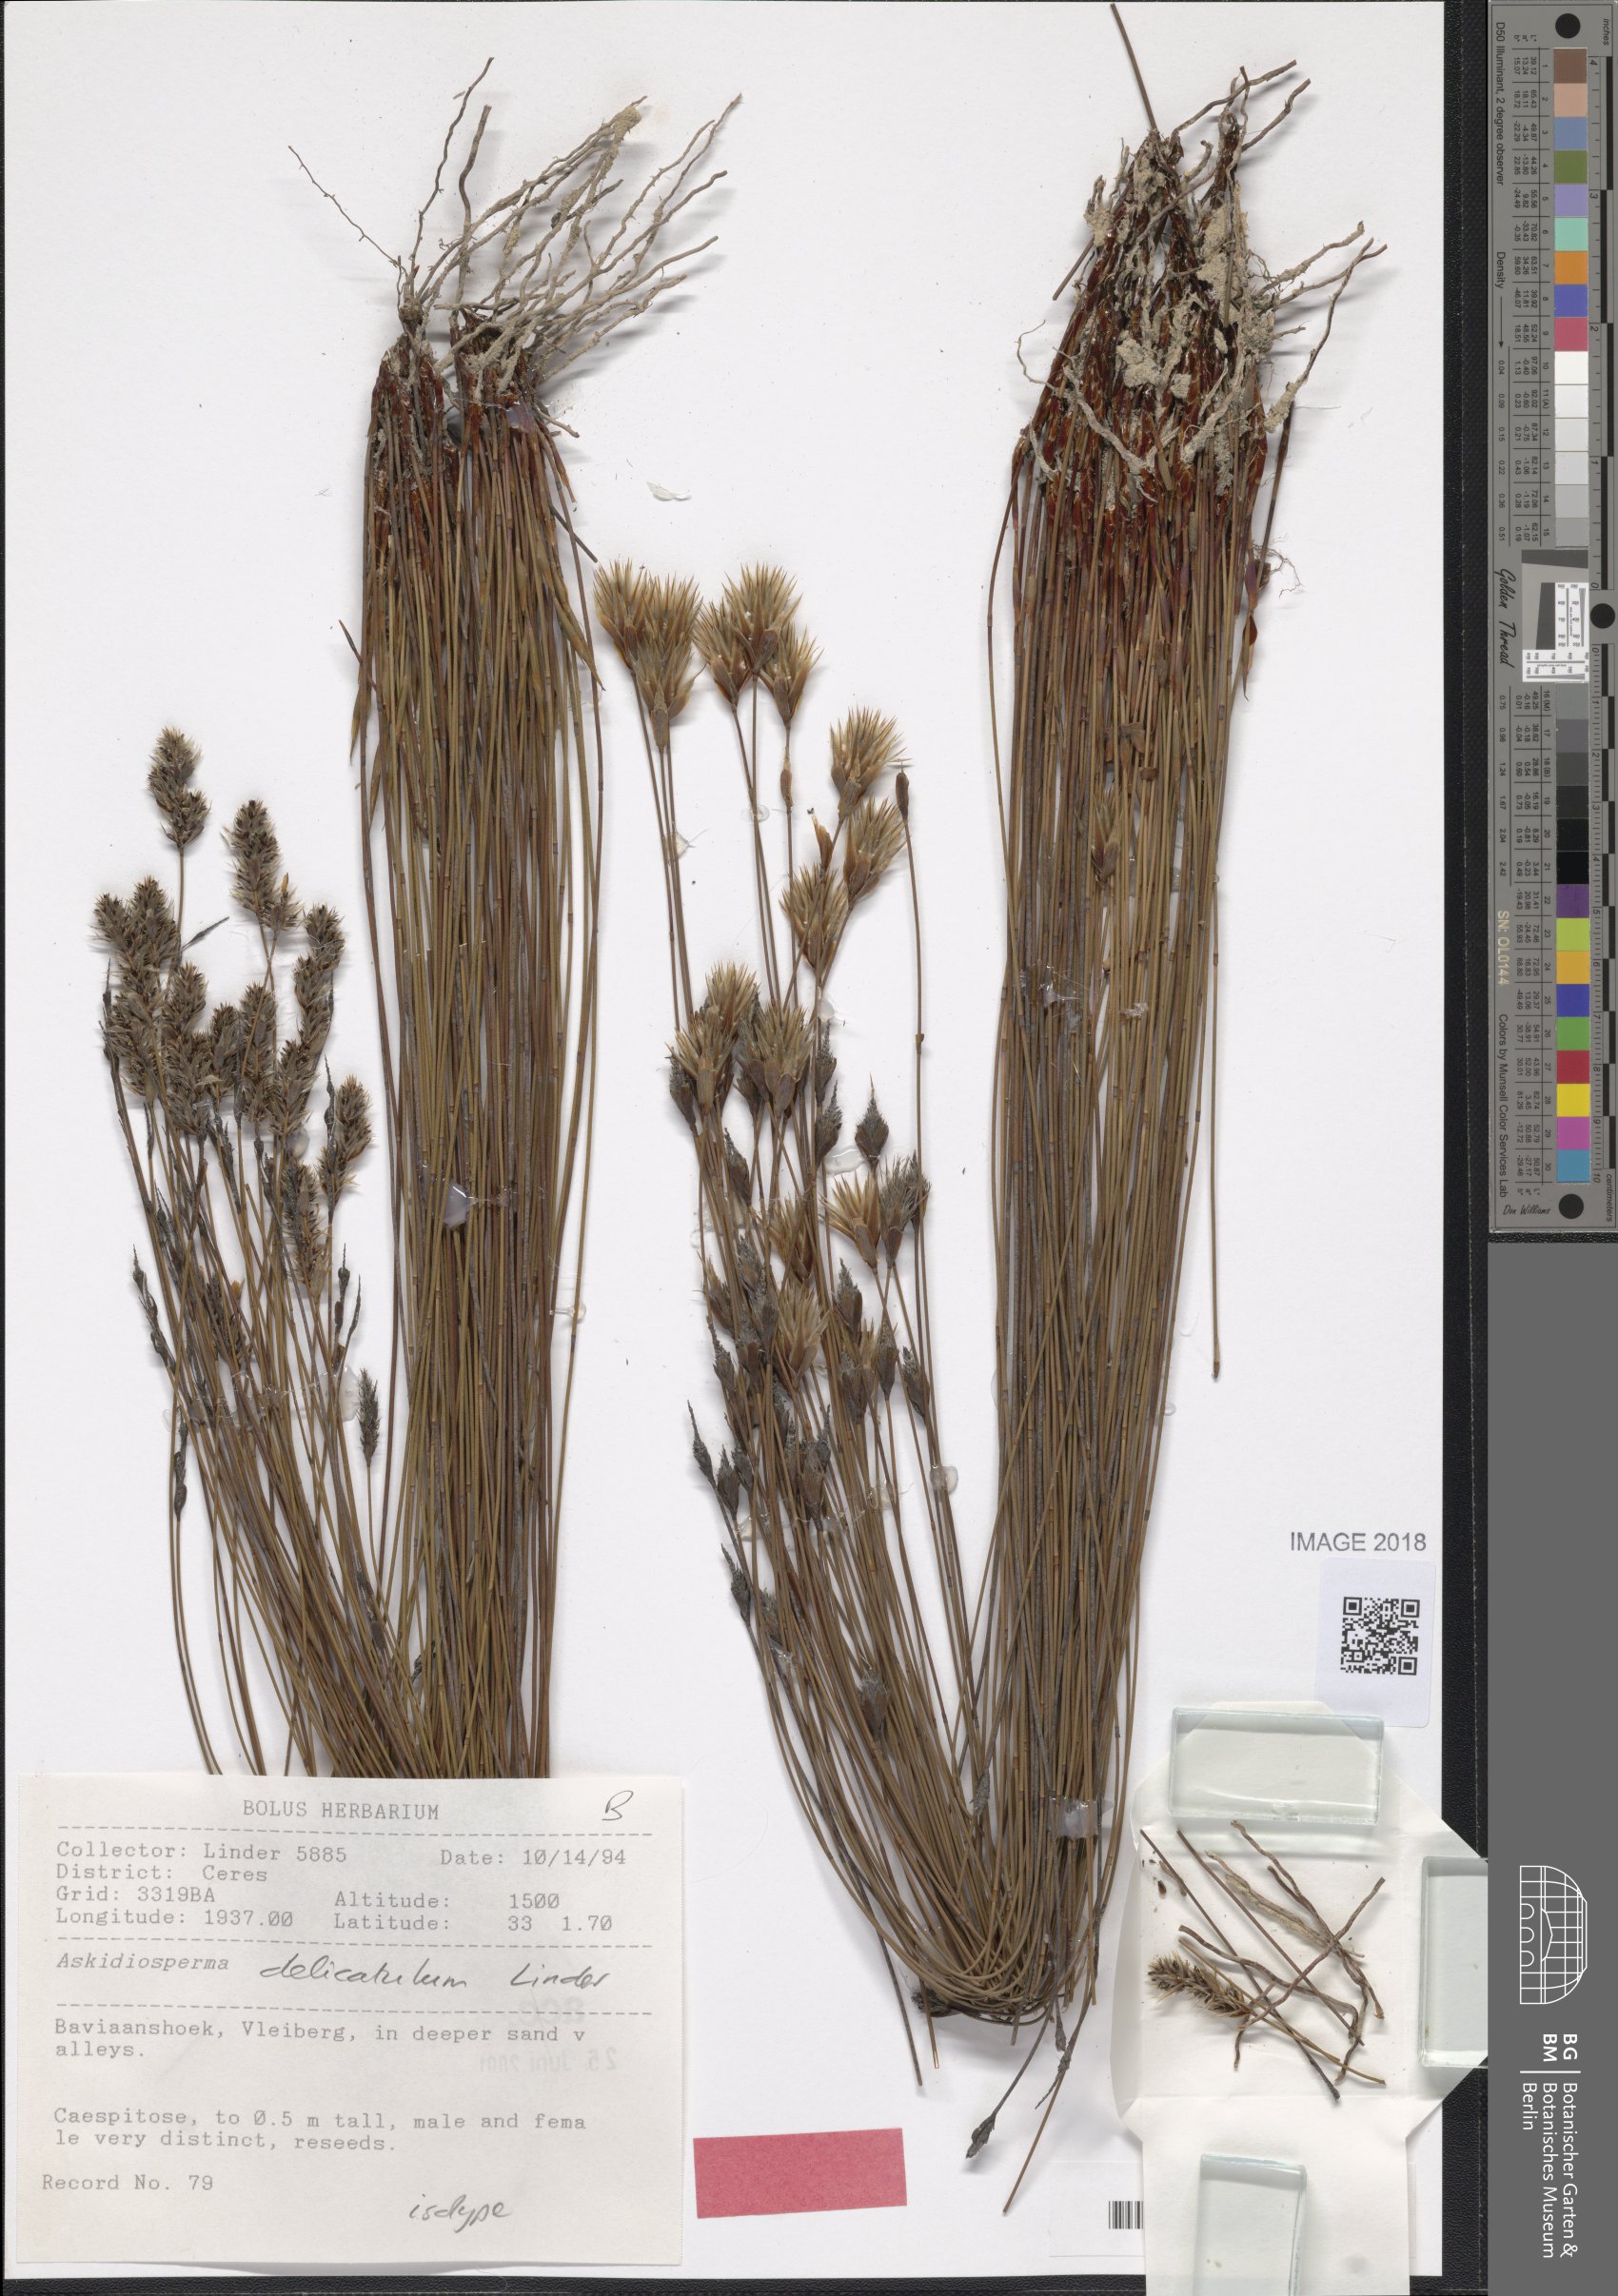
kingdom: Plantae
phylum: Tracheophyta
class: Liliopsida
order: Poales
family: Restionaceae
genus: Askidiosperma
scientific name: Askidiosperma delicatulum
